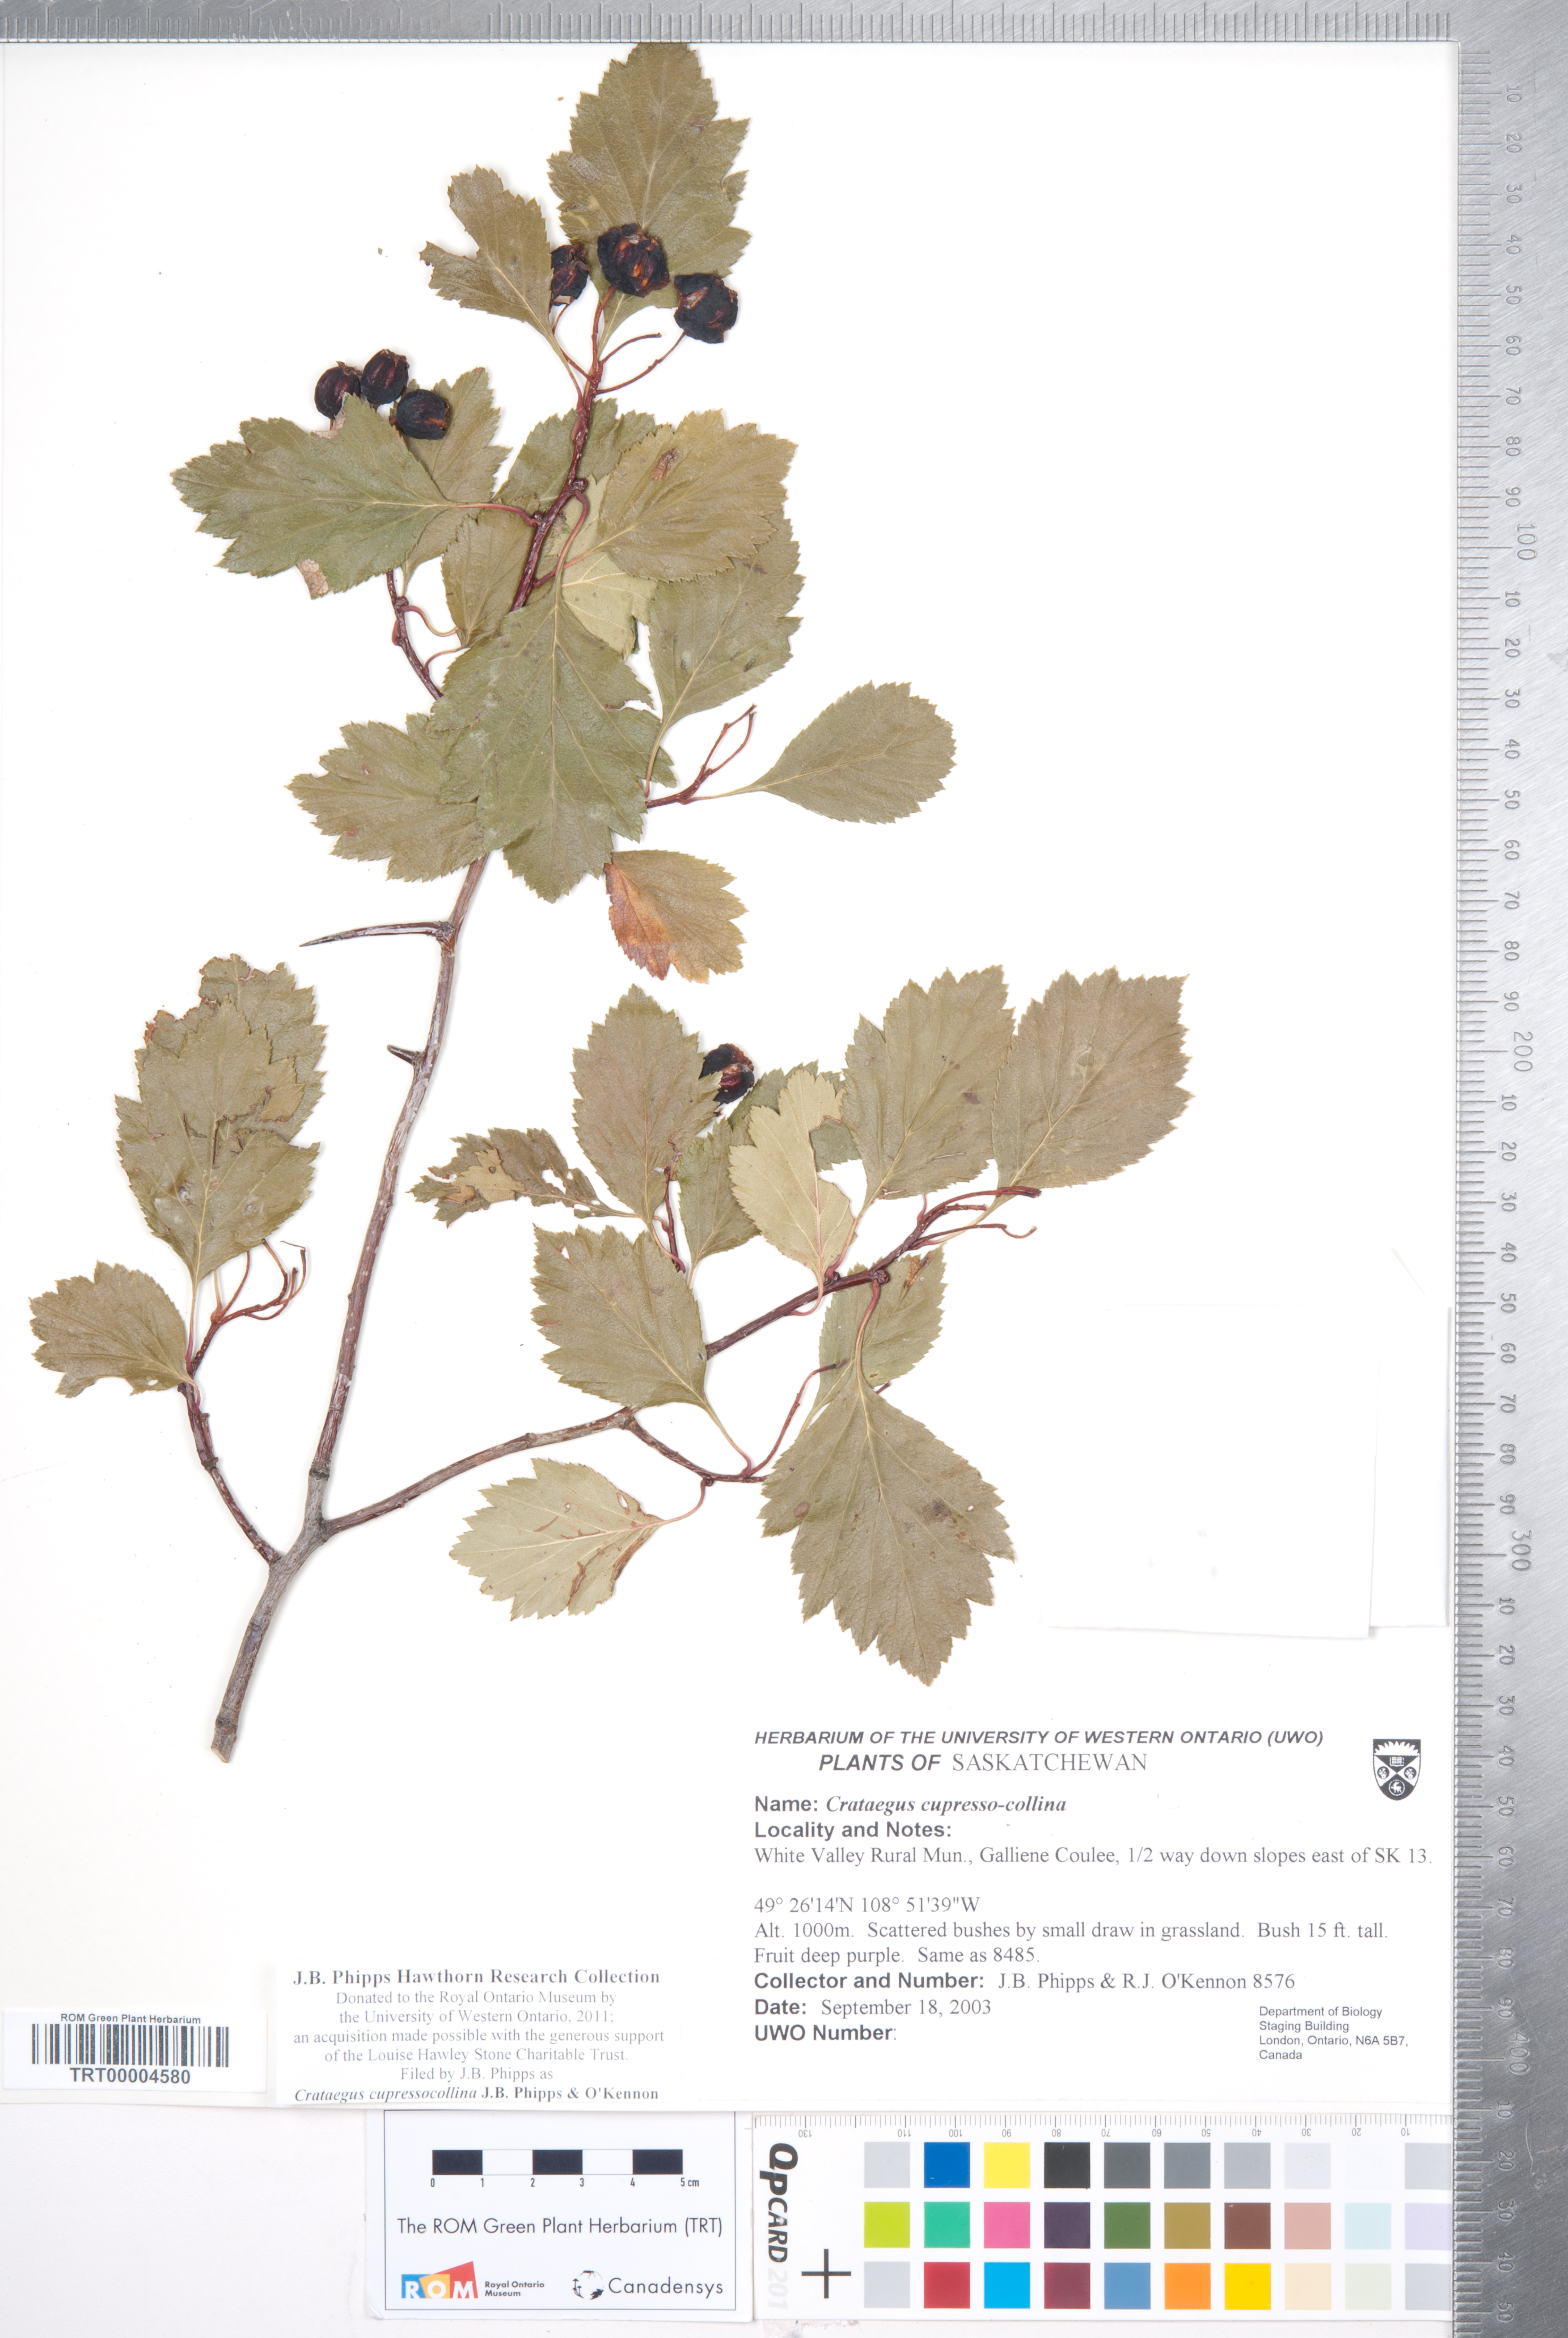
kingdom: Plantae
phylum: Tracheophyta
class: Magnoliopsida
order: Rosales
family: Rosaceae
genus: Crataegus
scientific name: Crataegus cupressocollina
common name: Cypress hills hawthorn
